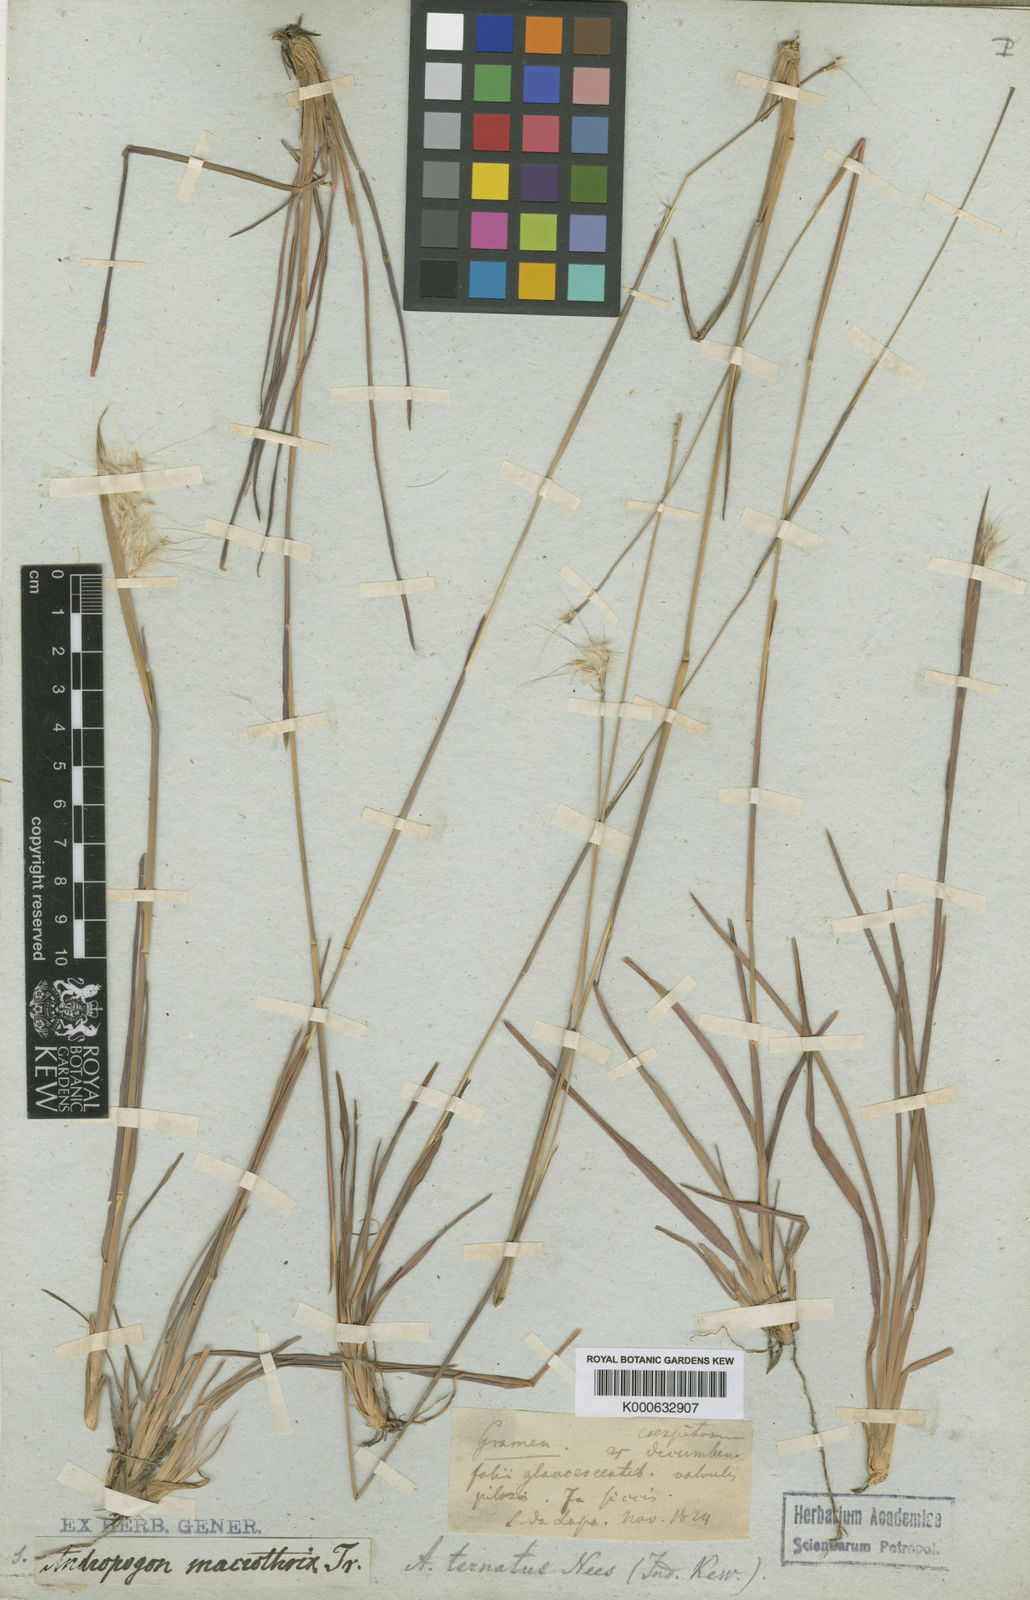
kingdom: Plantae
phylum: Tracheophyta
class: Liliopsida
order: Poales
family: Poaceae
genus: Andropogon
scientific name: Andropogon macrothrix
